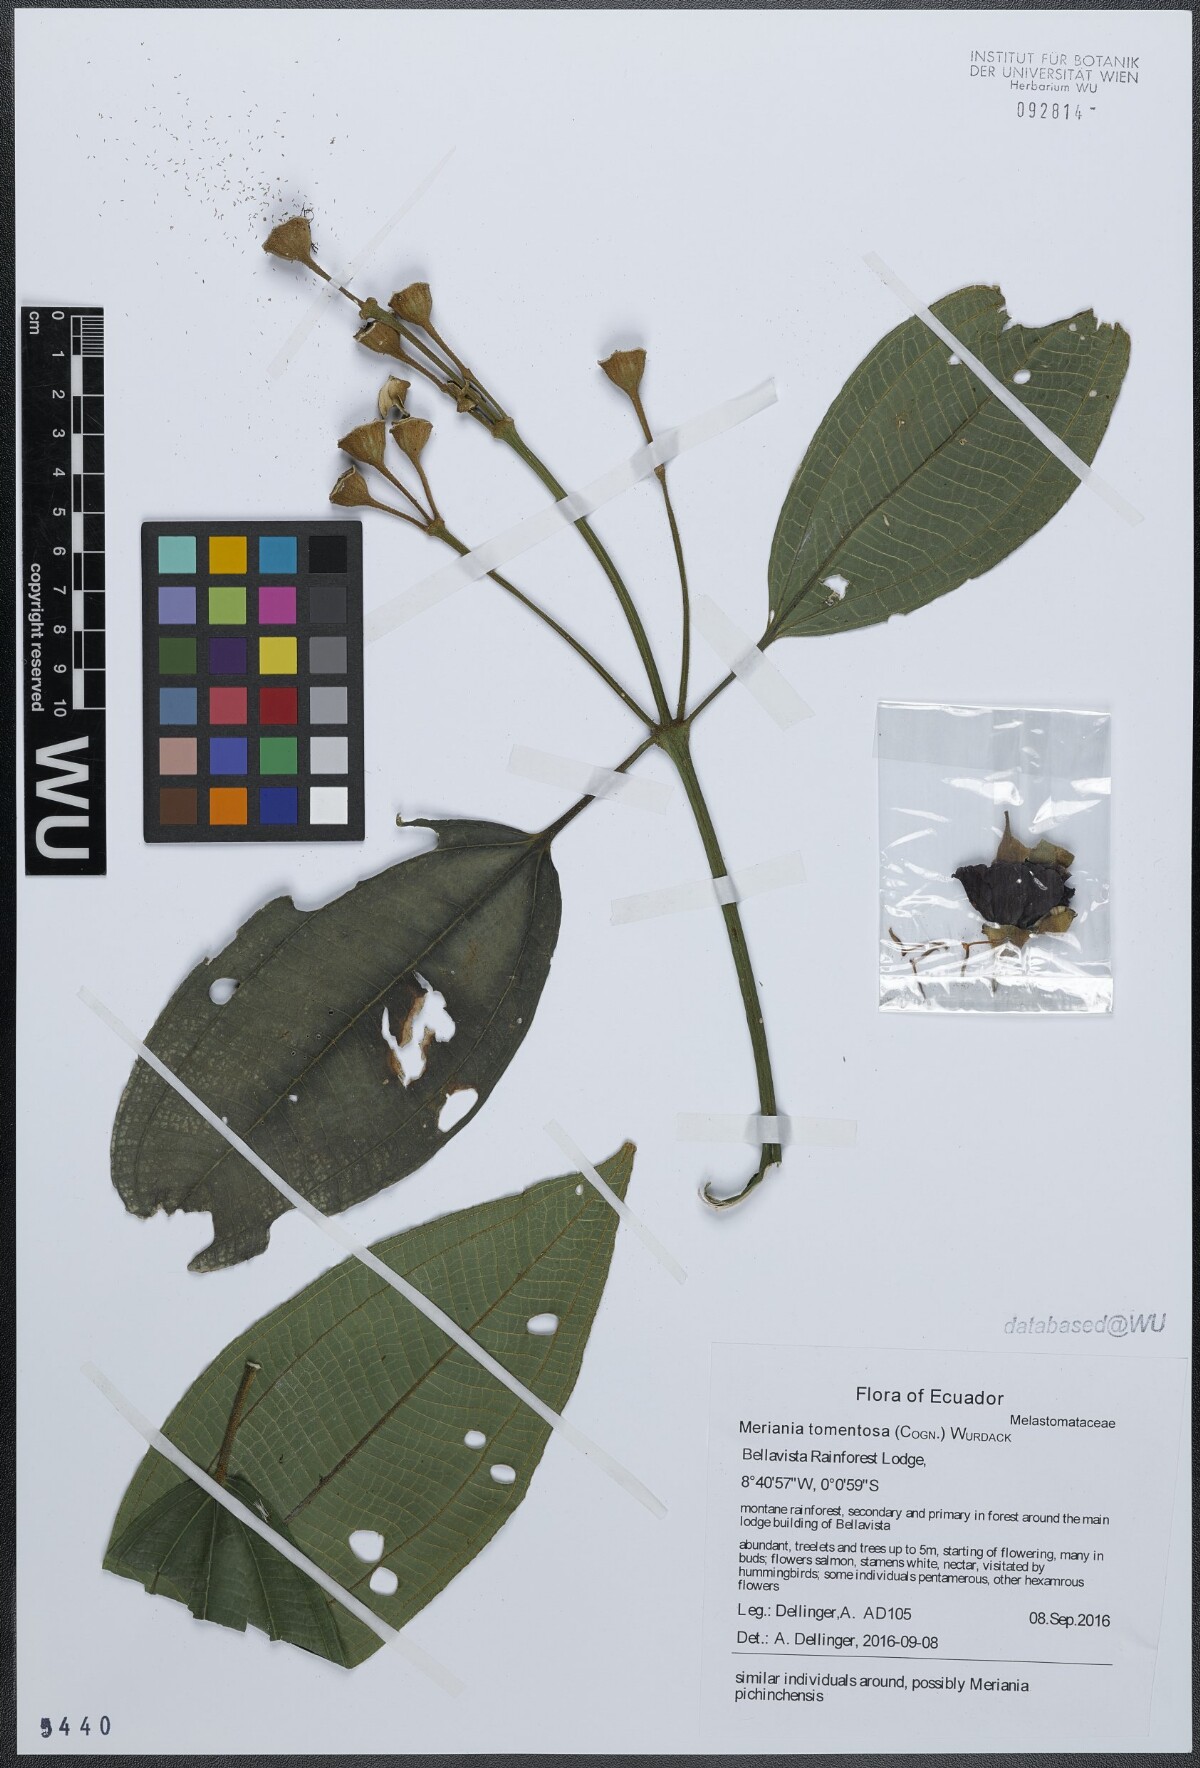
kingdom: Plantae
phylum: Tracheophyta
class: Magnoliopsida
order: Myrtales
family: Melastomataceae
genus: Meriania
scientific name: Meriania tomentosa
